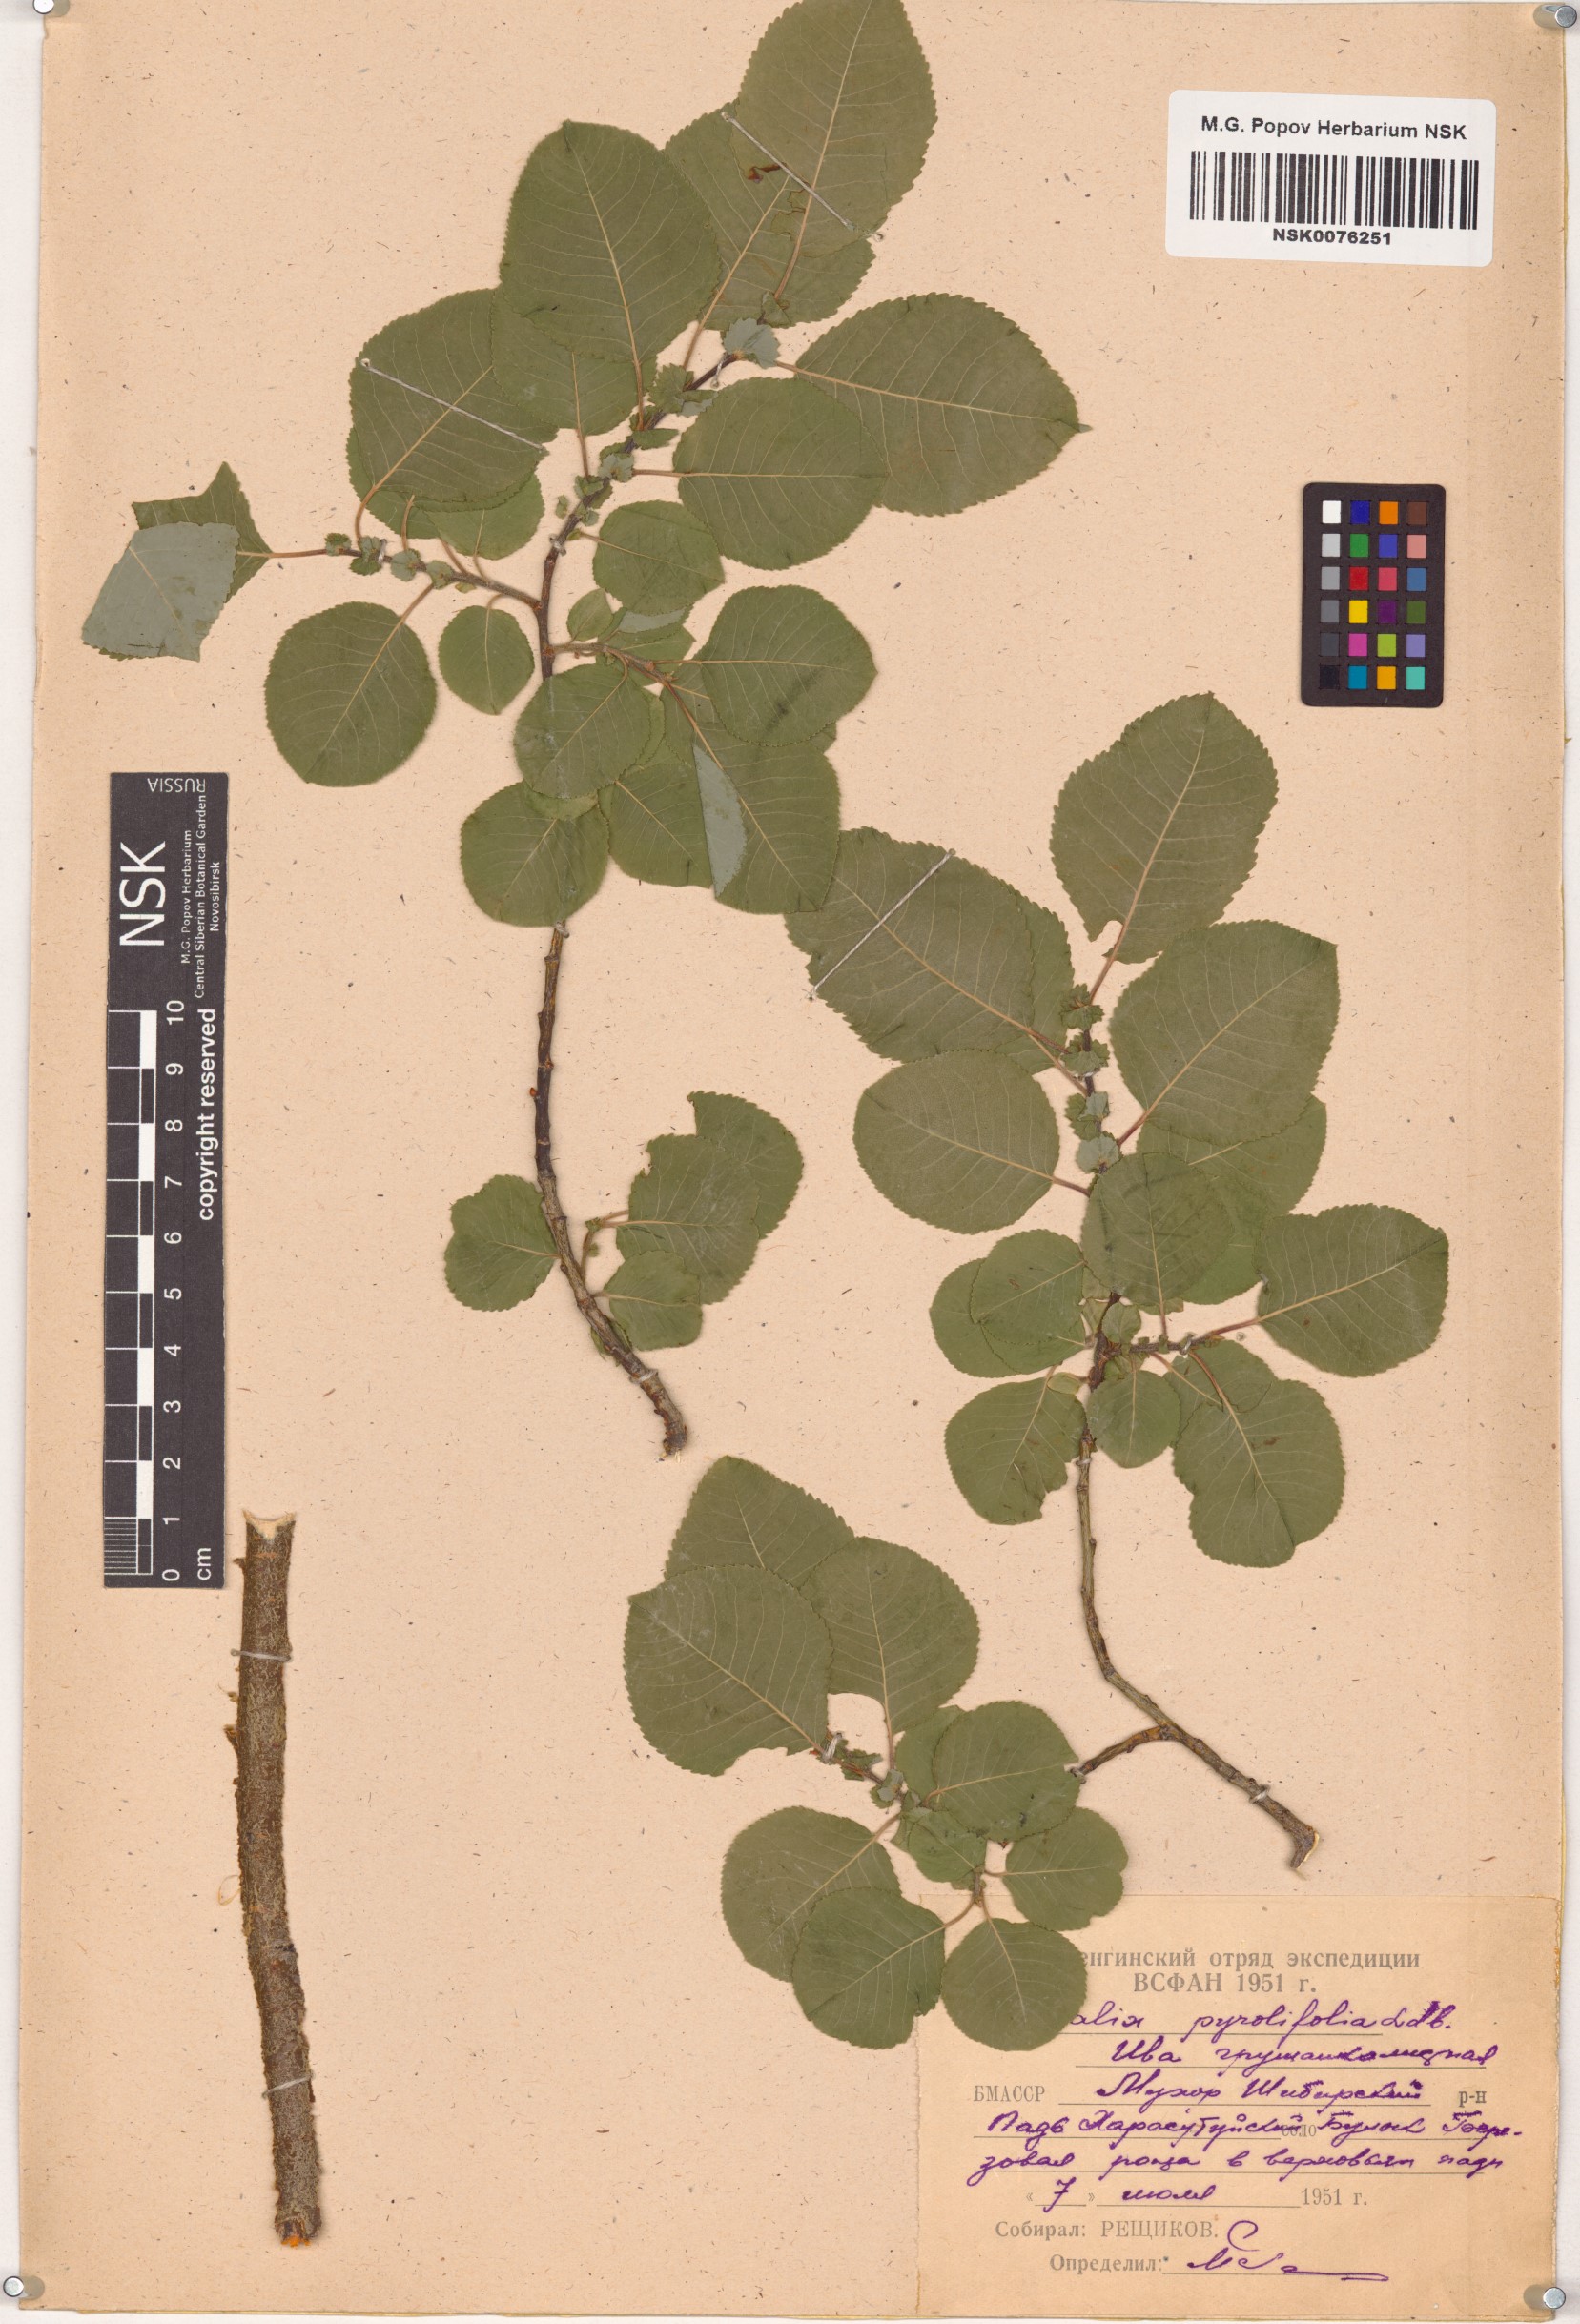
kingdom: Plantae
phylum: Tracheophyta
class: Magnoliopsida
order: Malpighiales
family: Salicaceae
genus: Salix
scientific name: Salix pyrolifolia
